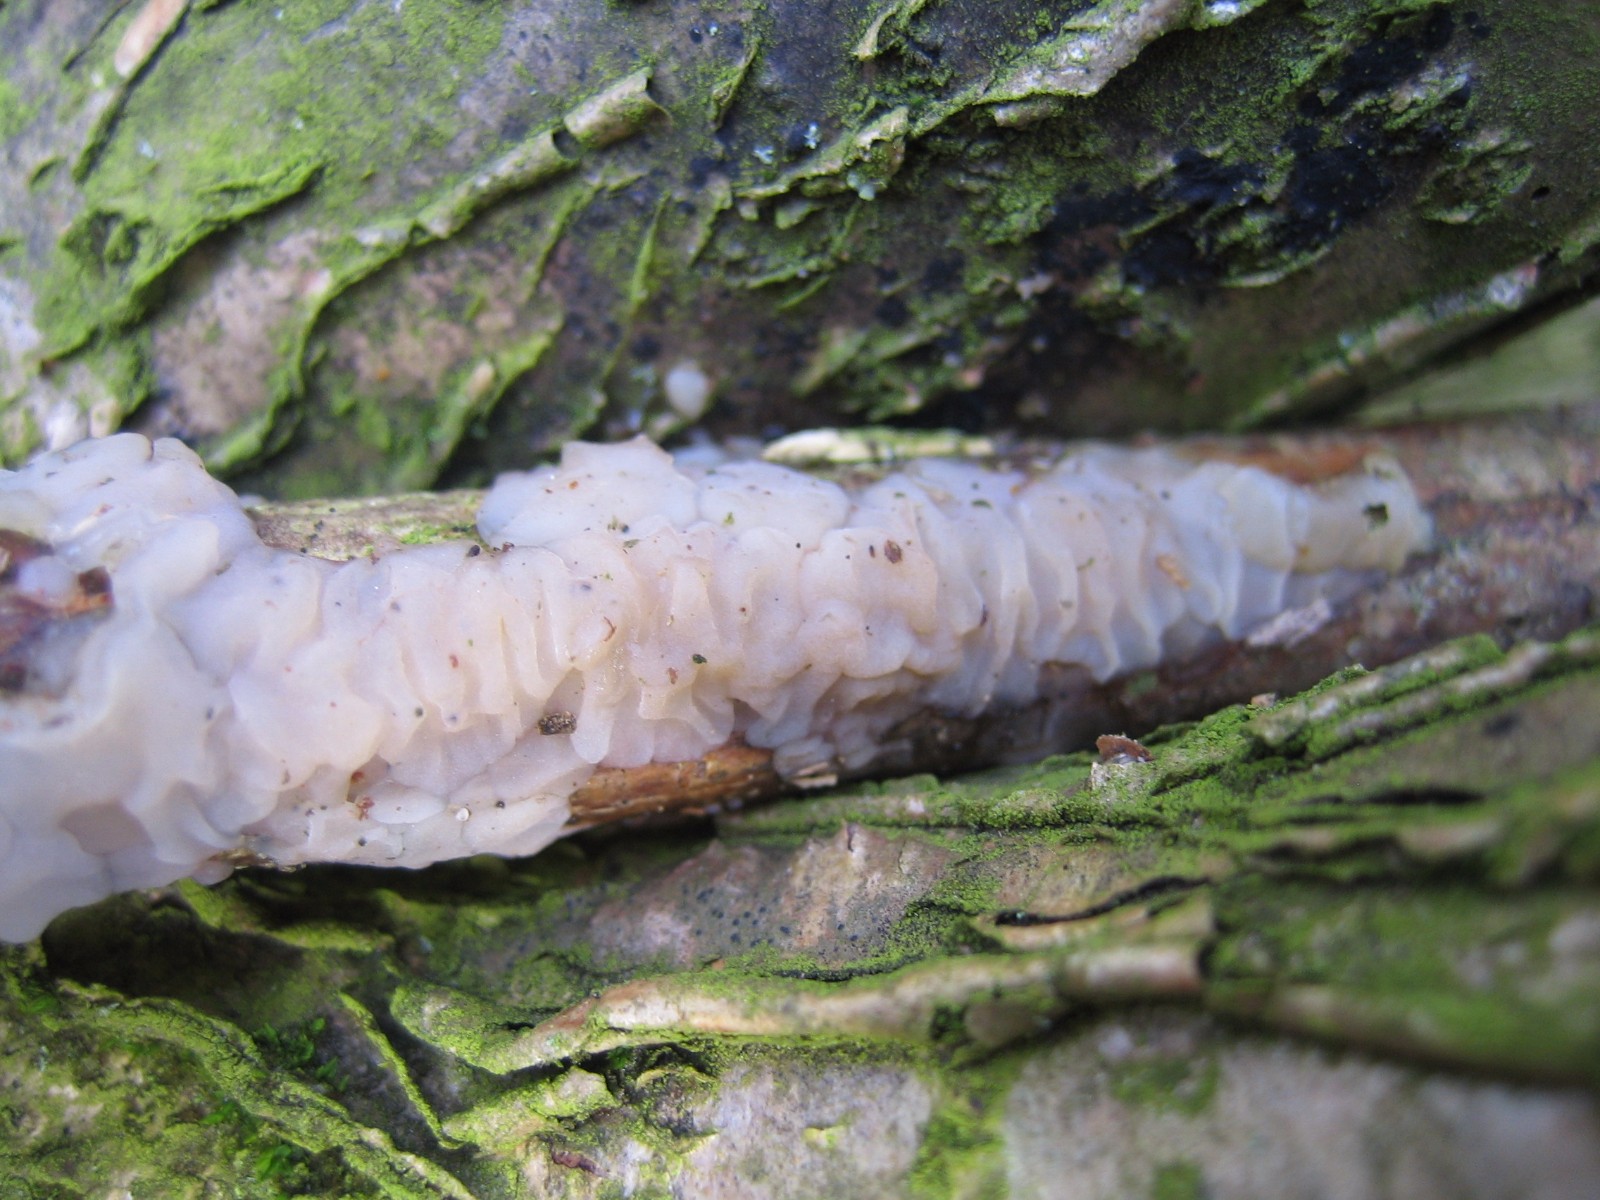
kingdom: Fungi
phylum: Basidiomycota
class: Agaricomycetes
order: Auriculariales
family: Auriculariaceae
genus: Exidia
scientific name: Exidia thuretiana
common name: hvidlig bævretop
